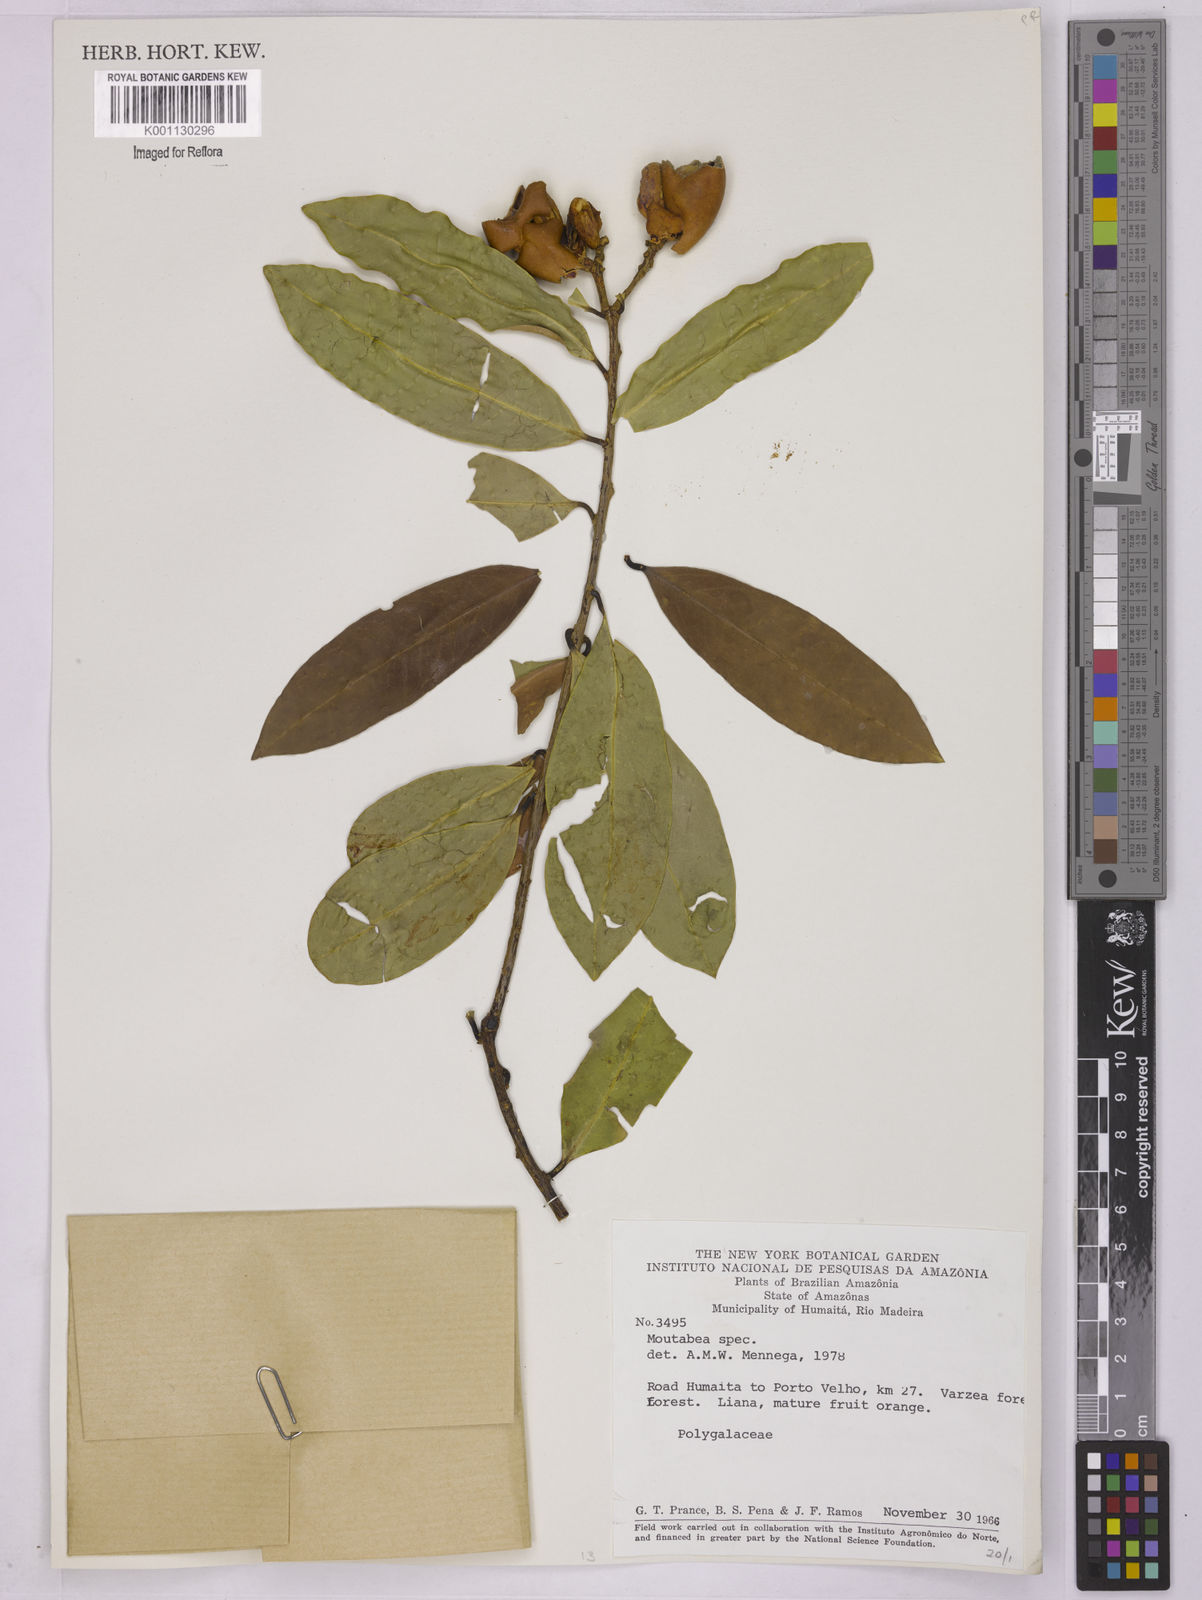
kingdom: Plantae
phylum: Tracheophyta
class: Magnoliopsida
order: Fabales
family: Polygalaceae
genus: Moutabea
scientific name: Moutabea
